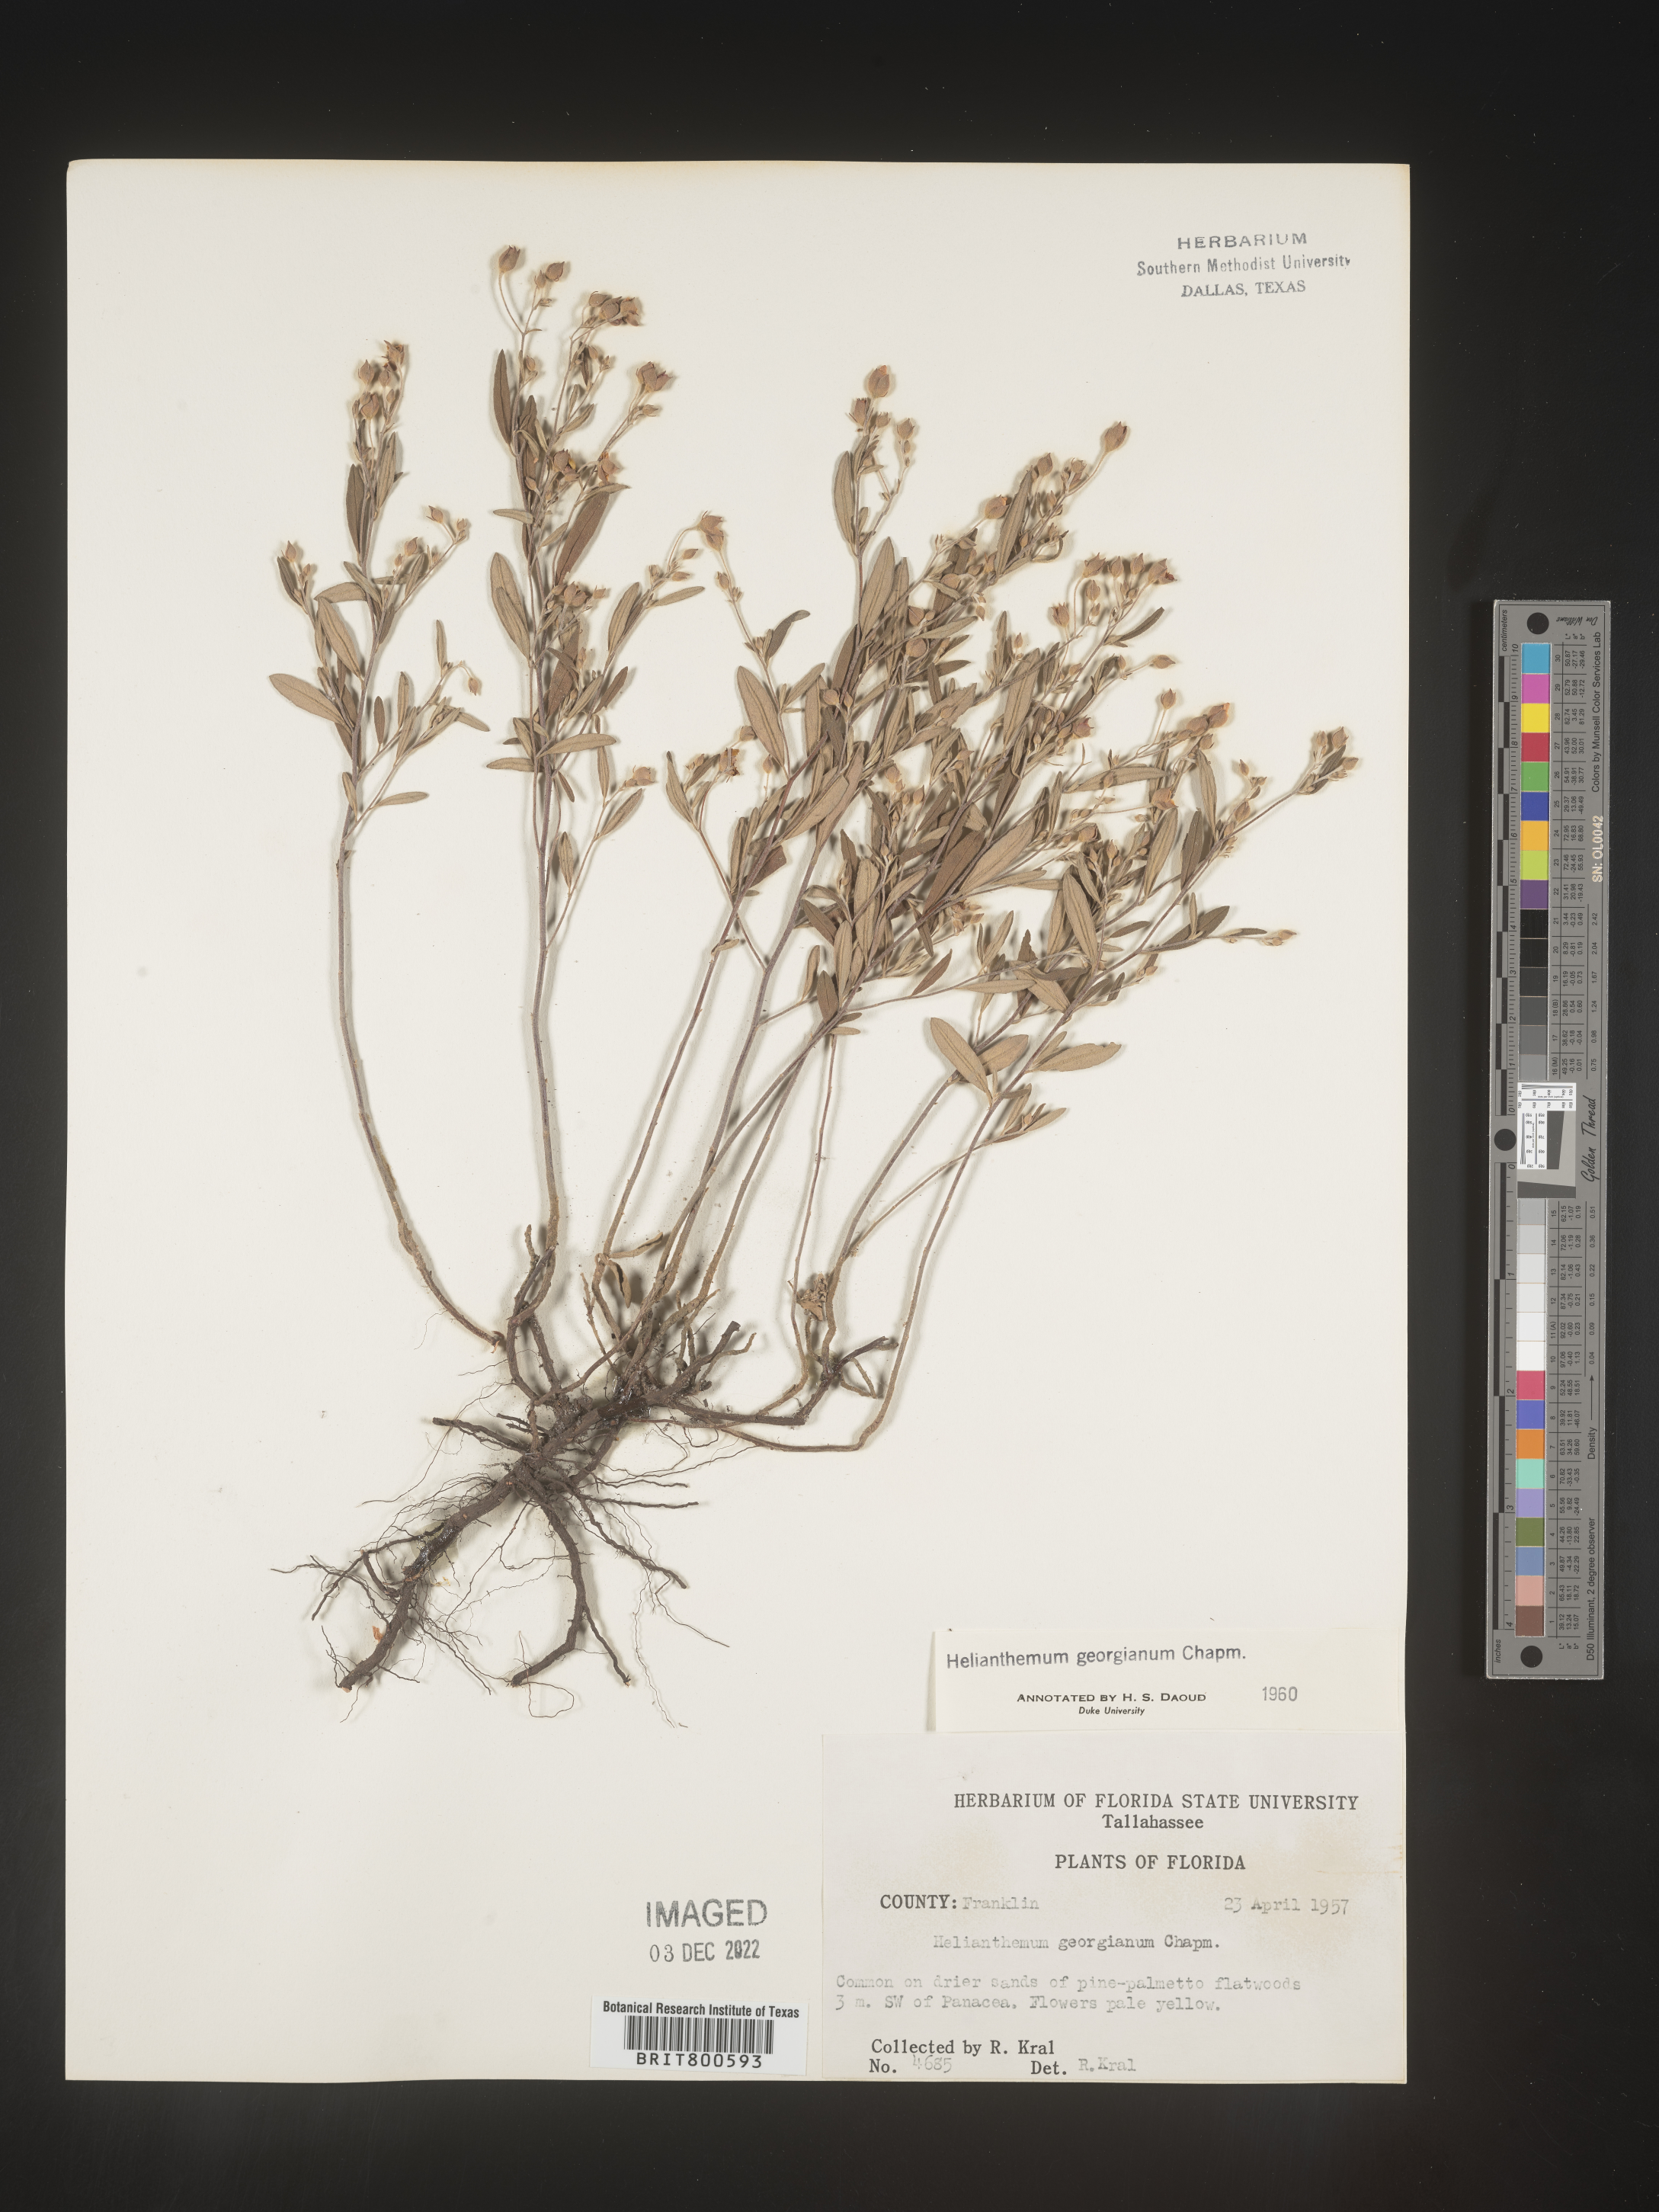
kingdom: Plantae
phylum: Tracheophyta
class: Magnoliopsida
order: Malvales
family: Cistaceae
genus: Crocanthemum
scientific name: Crocanthemum georgianum
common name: Georgia frostweed
